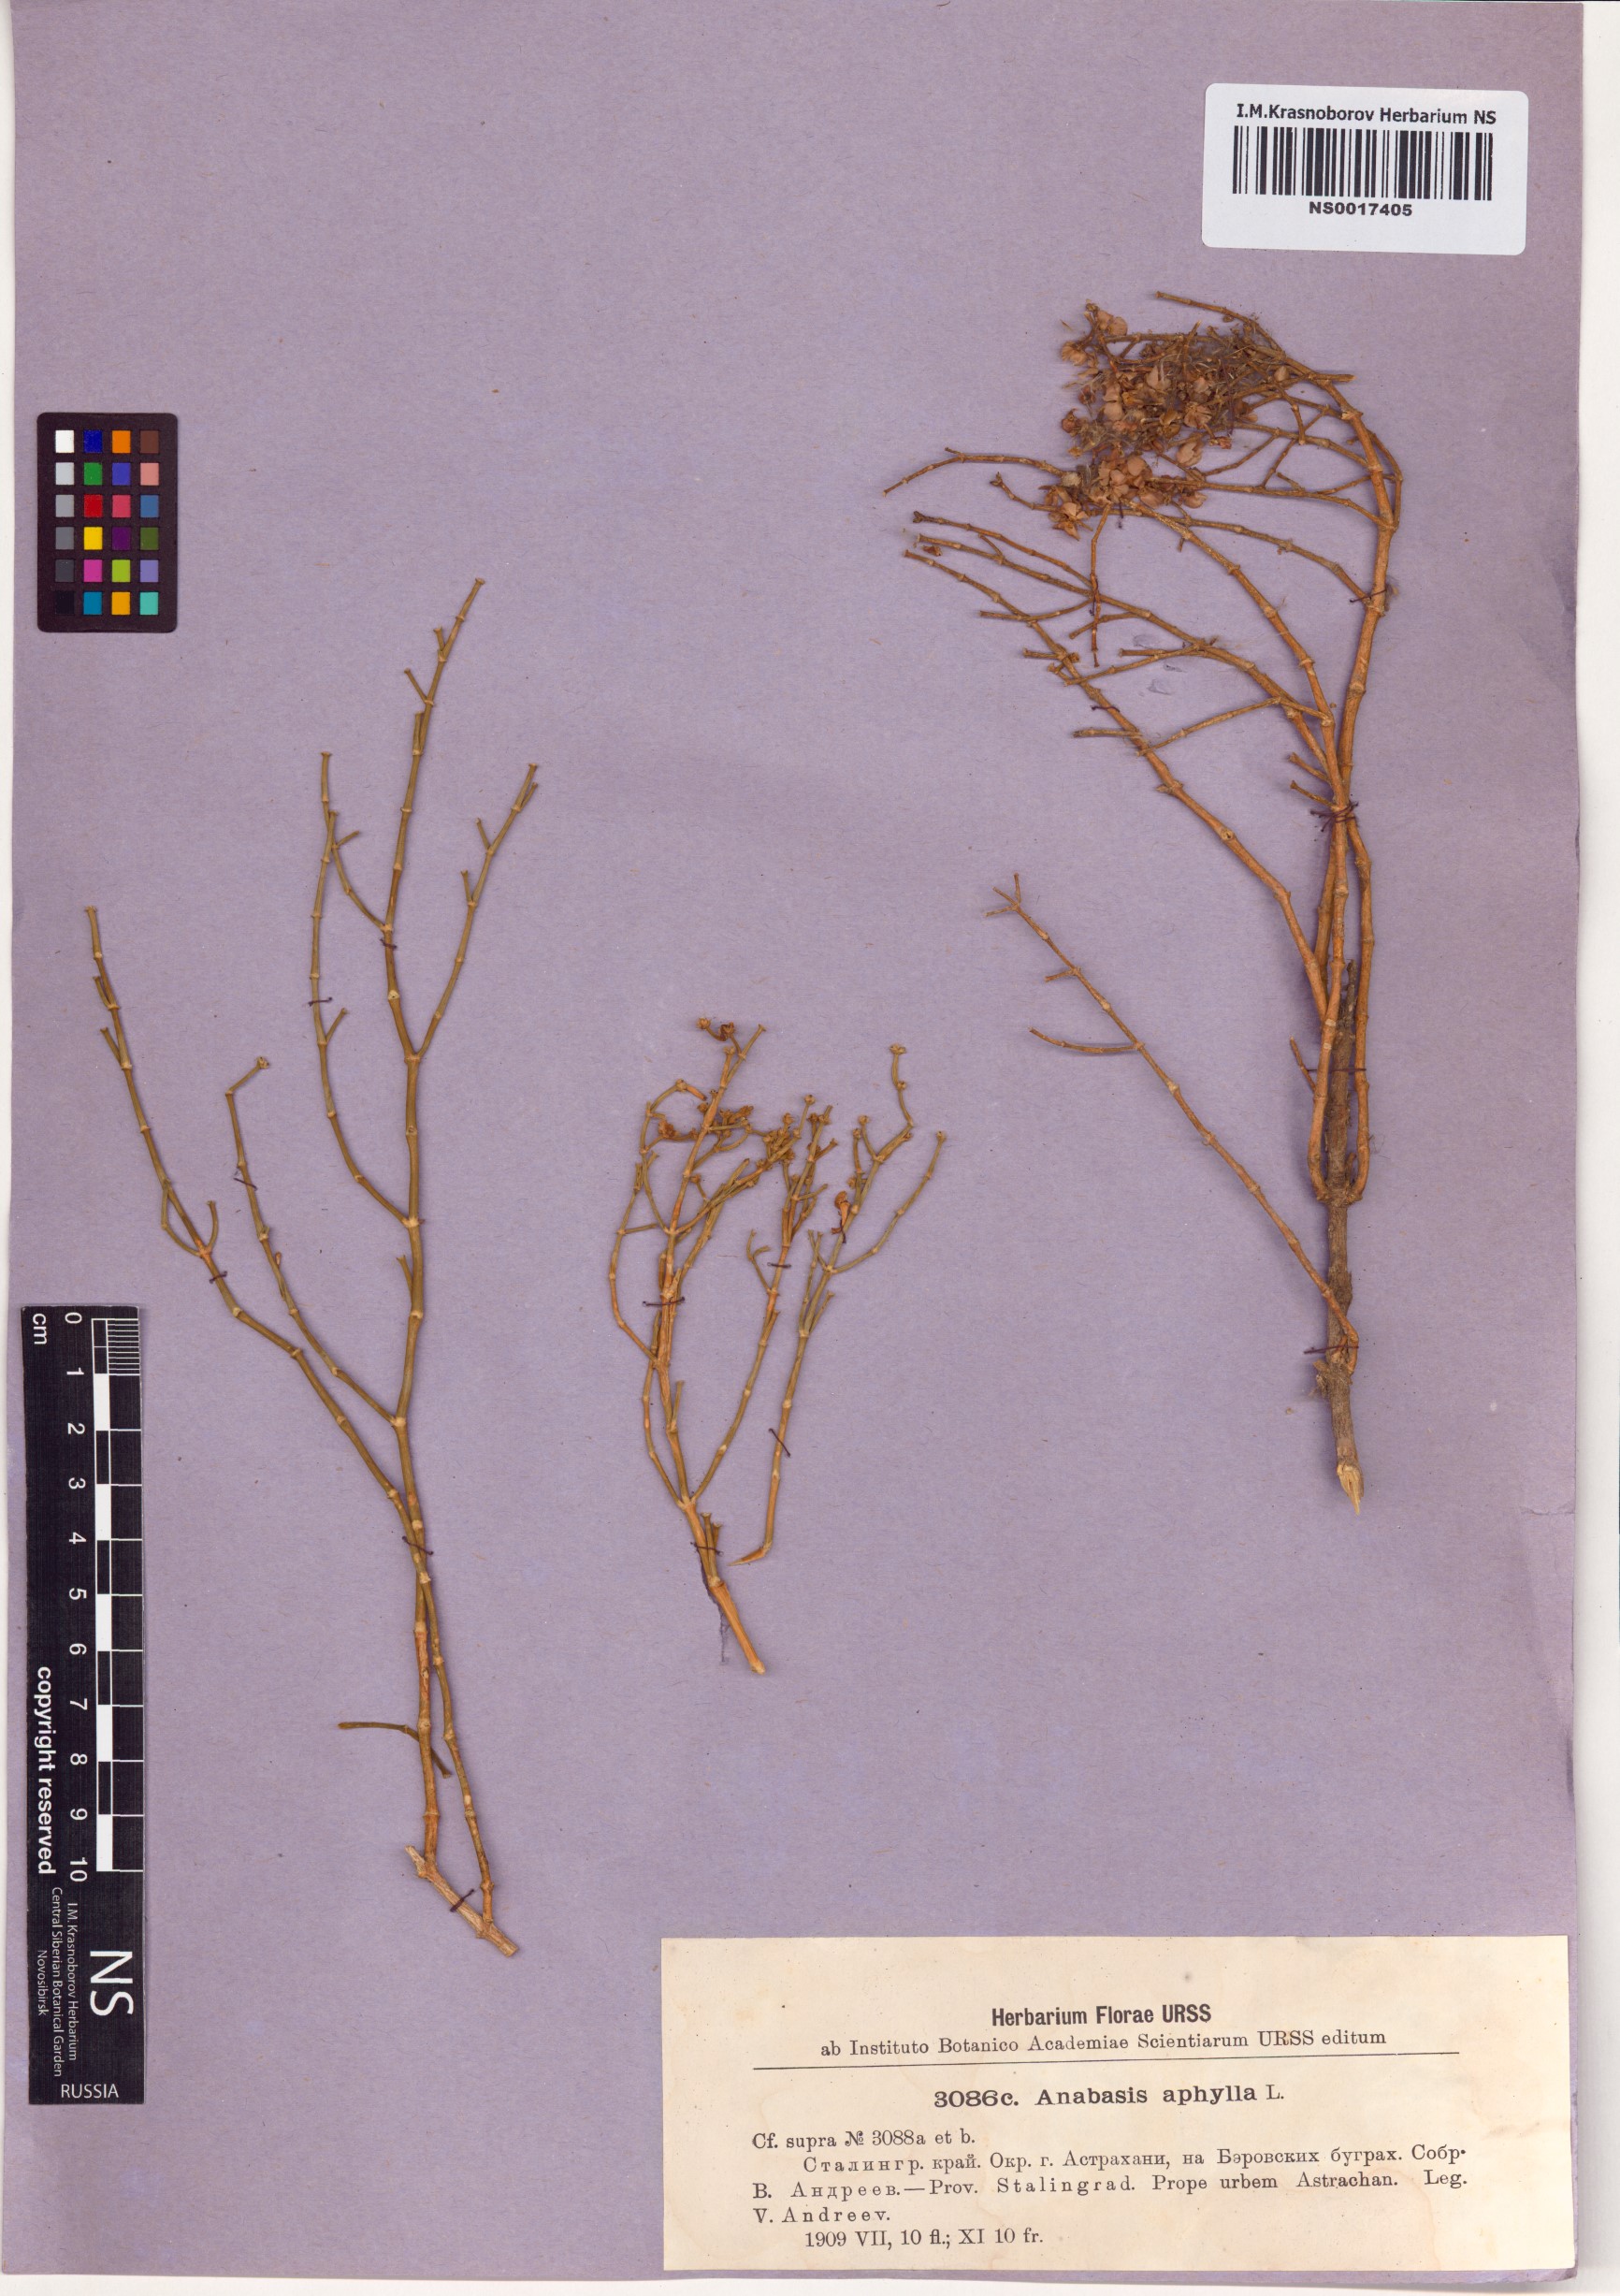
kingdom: Plantae
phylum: Tracheophyta
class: Magnoliopsida
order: Caryophyllales
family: Amaranthaceae
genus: Anabasis
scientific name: Anabasis aphylla
